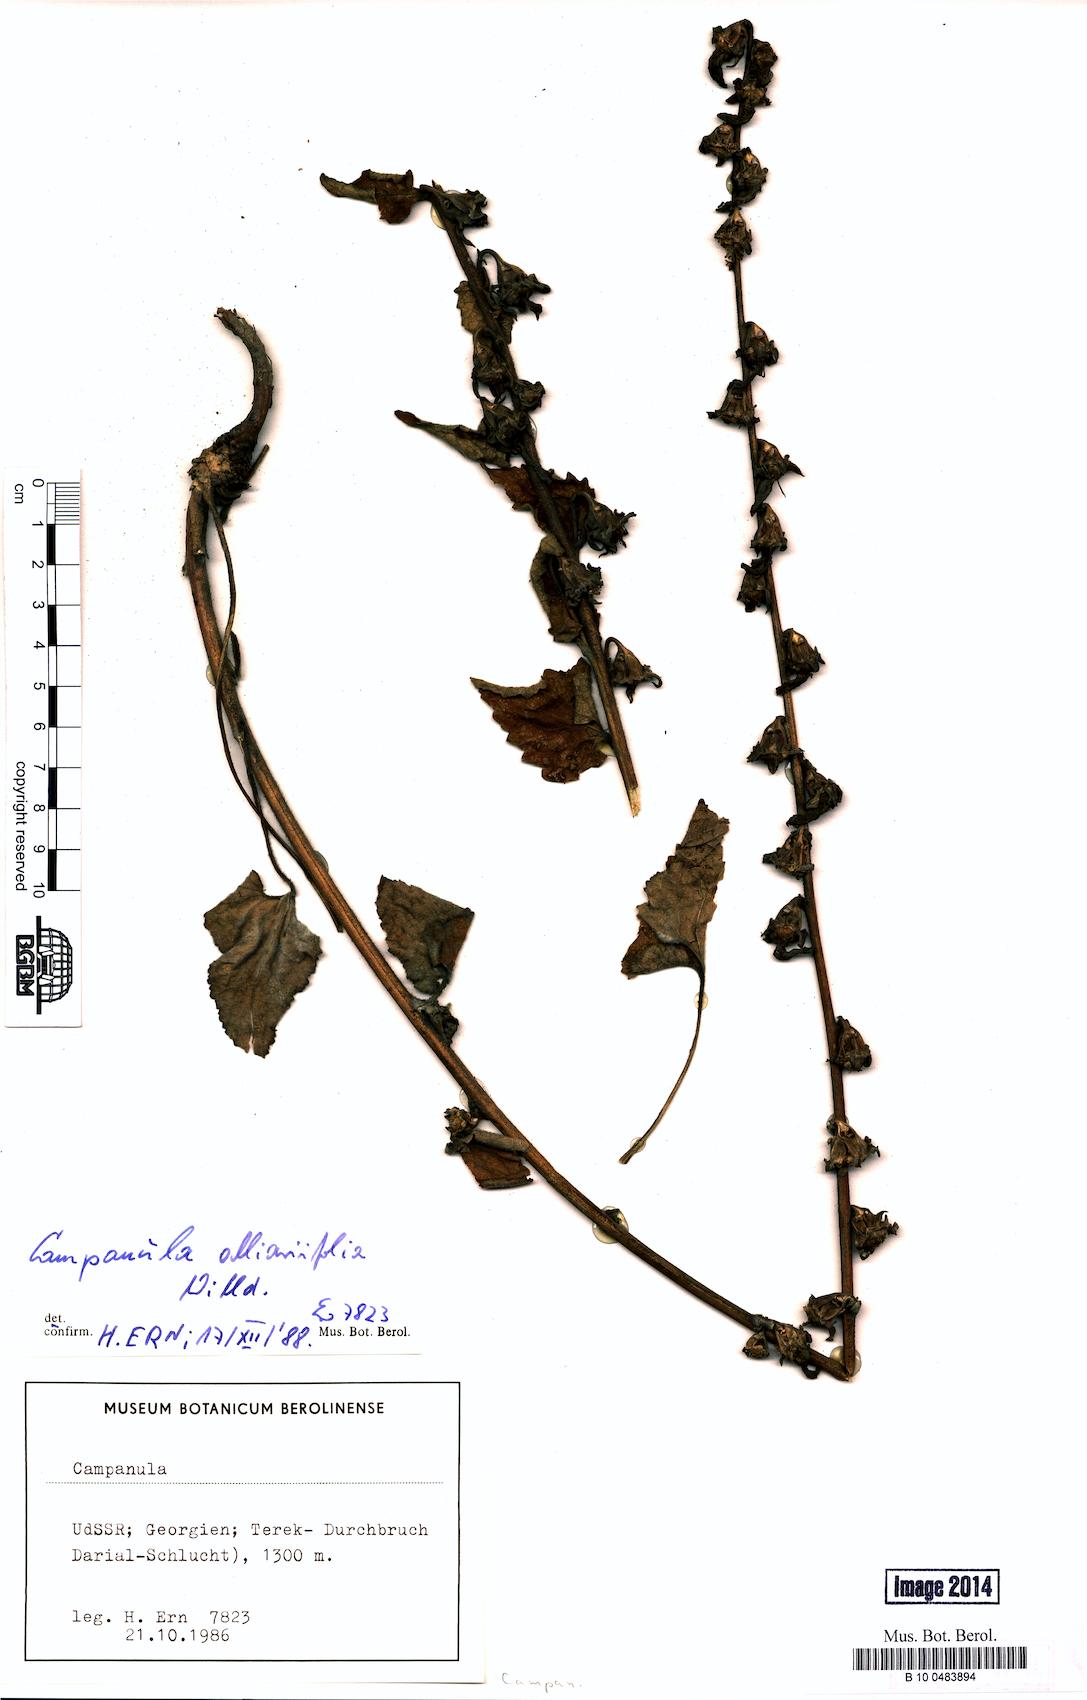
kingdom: Plantae
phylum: Tracheophyta
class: Magnoliopsida
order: Asterales
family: Campanulaceae
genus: Campanula
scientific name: Campanula alliariifolia
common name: Cornish bellflower
